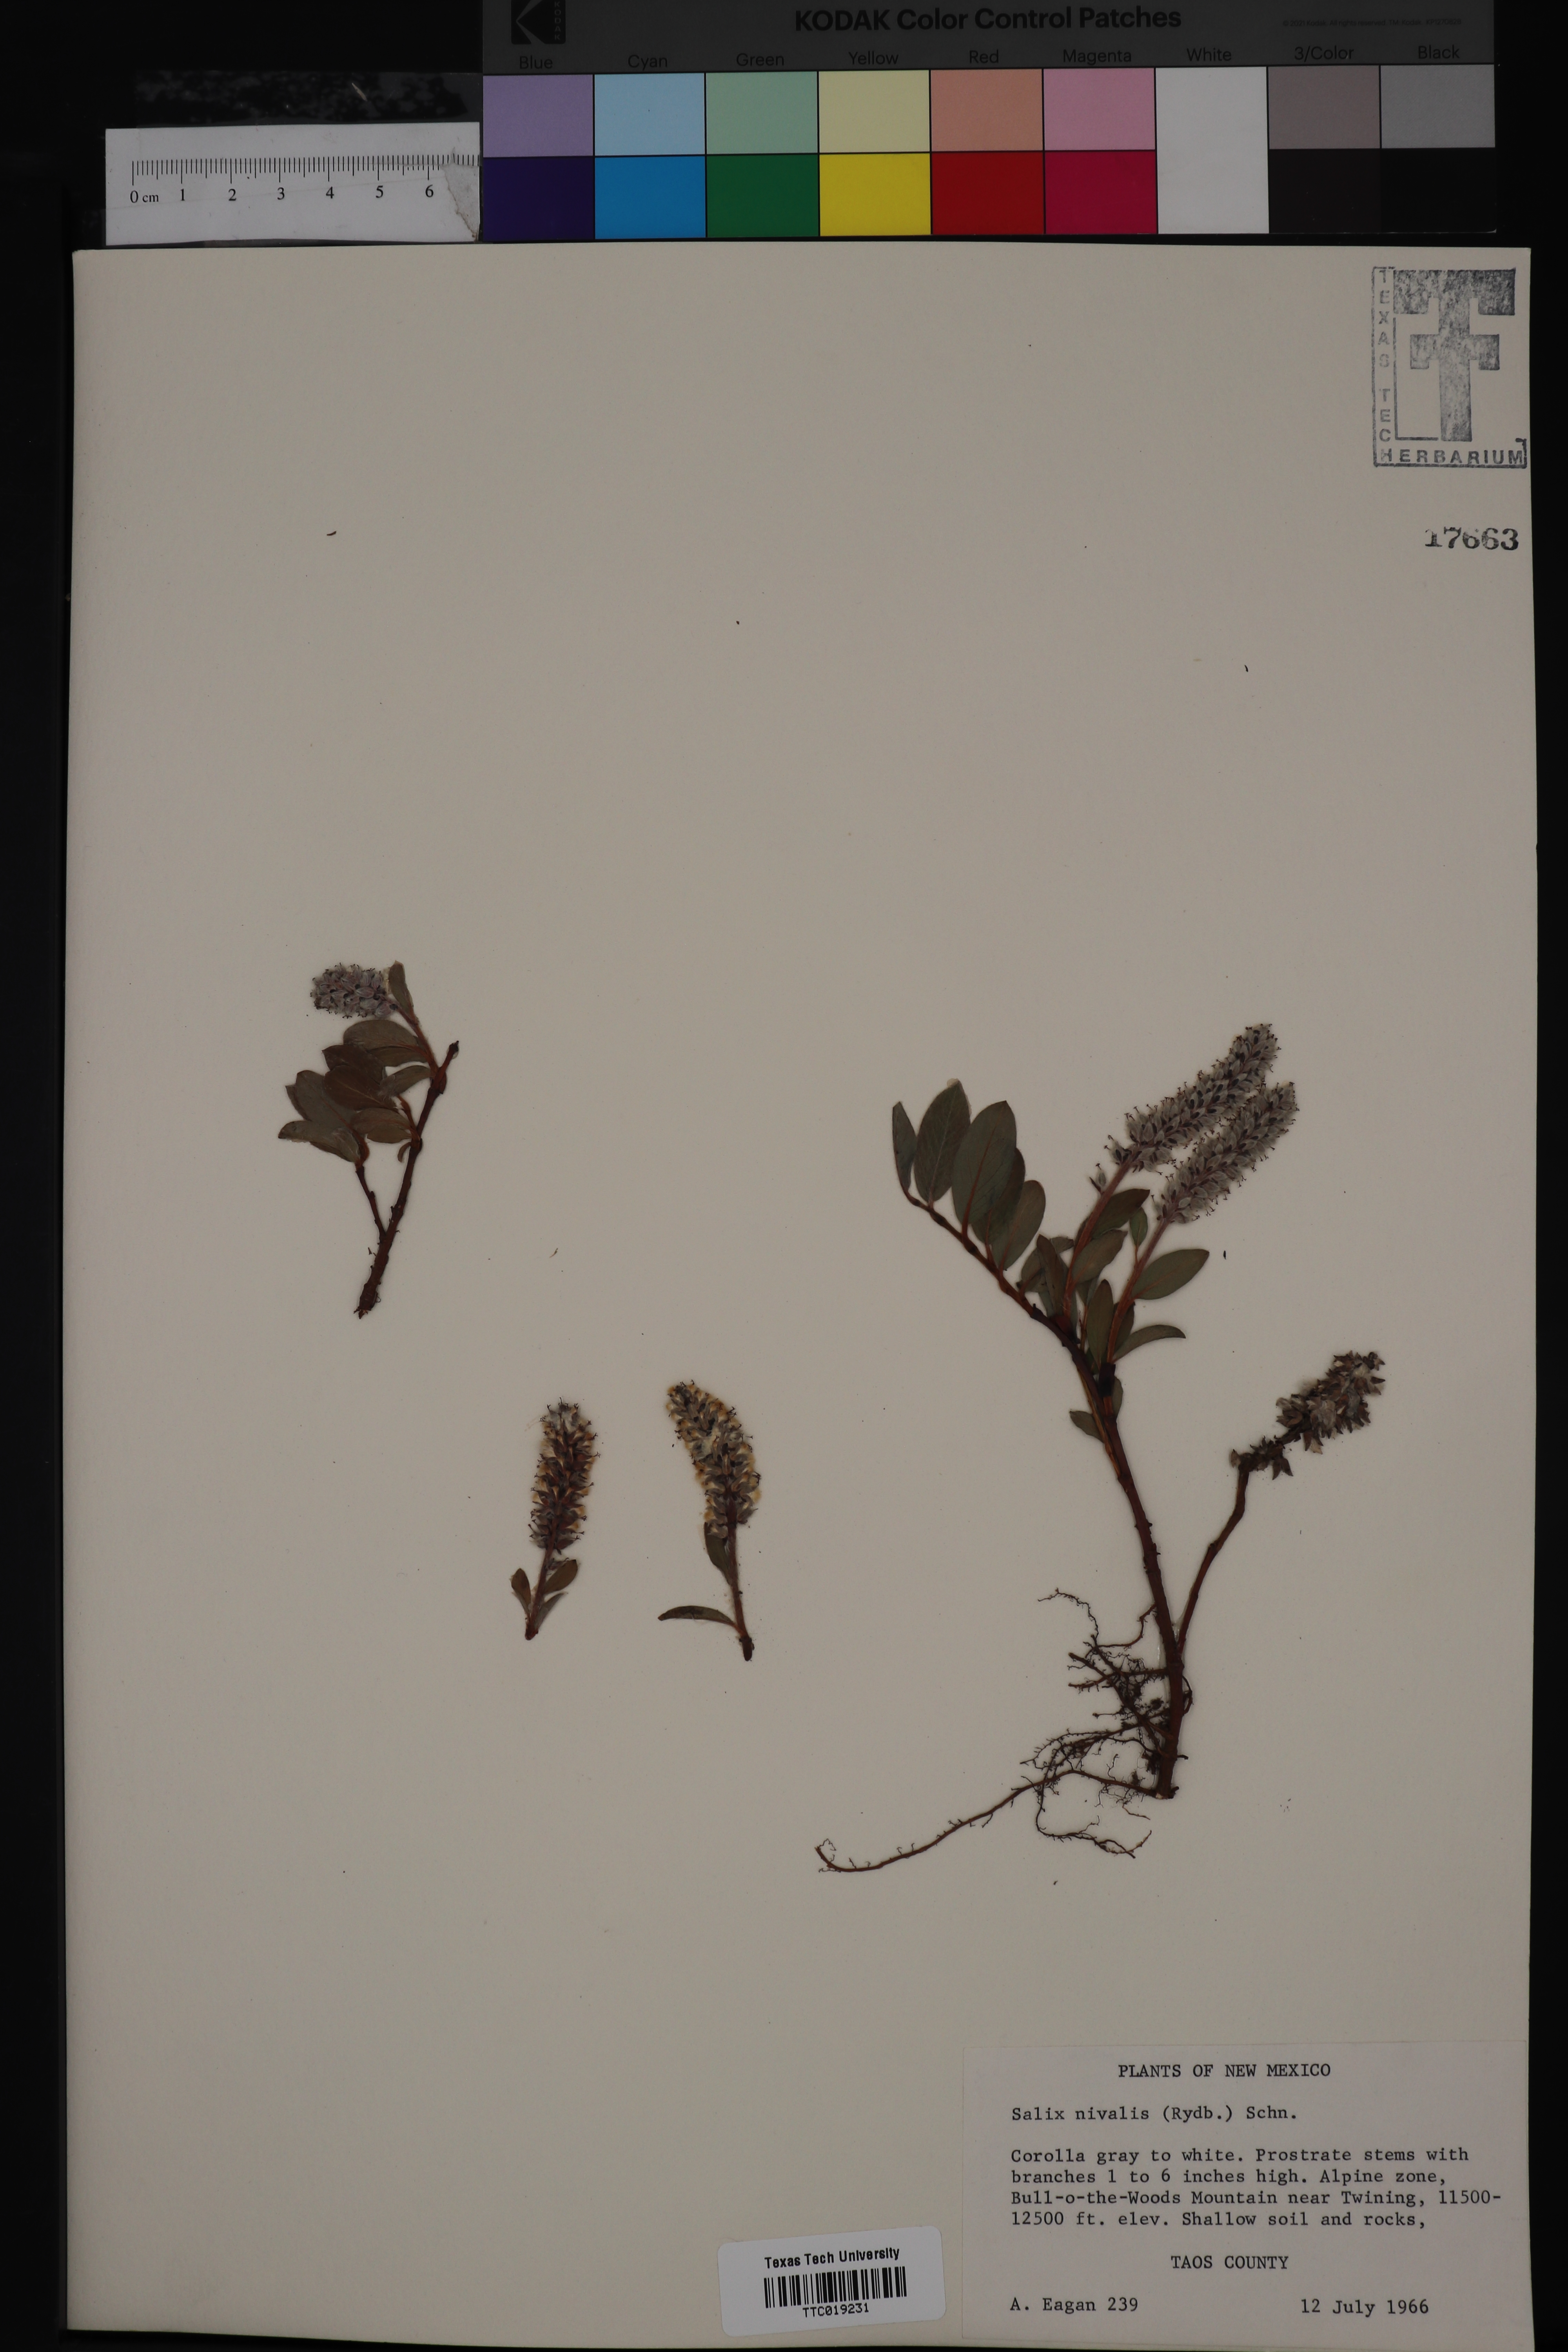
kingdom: Plantae
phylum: Tracheophyta
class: Magnoliopsida
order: Malpighiales
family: Salicaceae
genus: Salix
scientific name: Salix nivalis
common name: Dwarf snow willow
